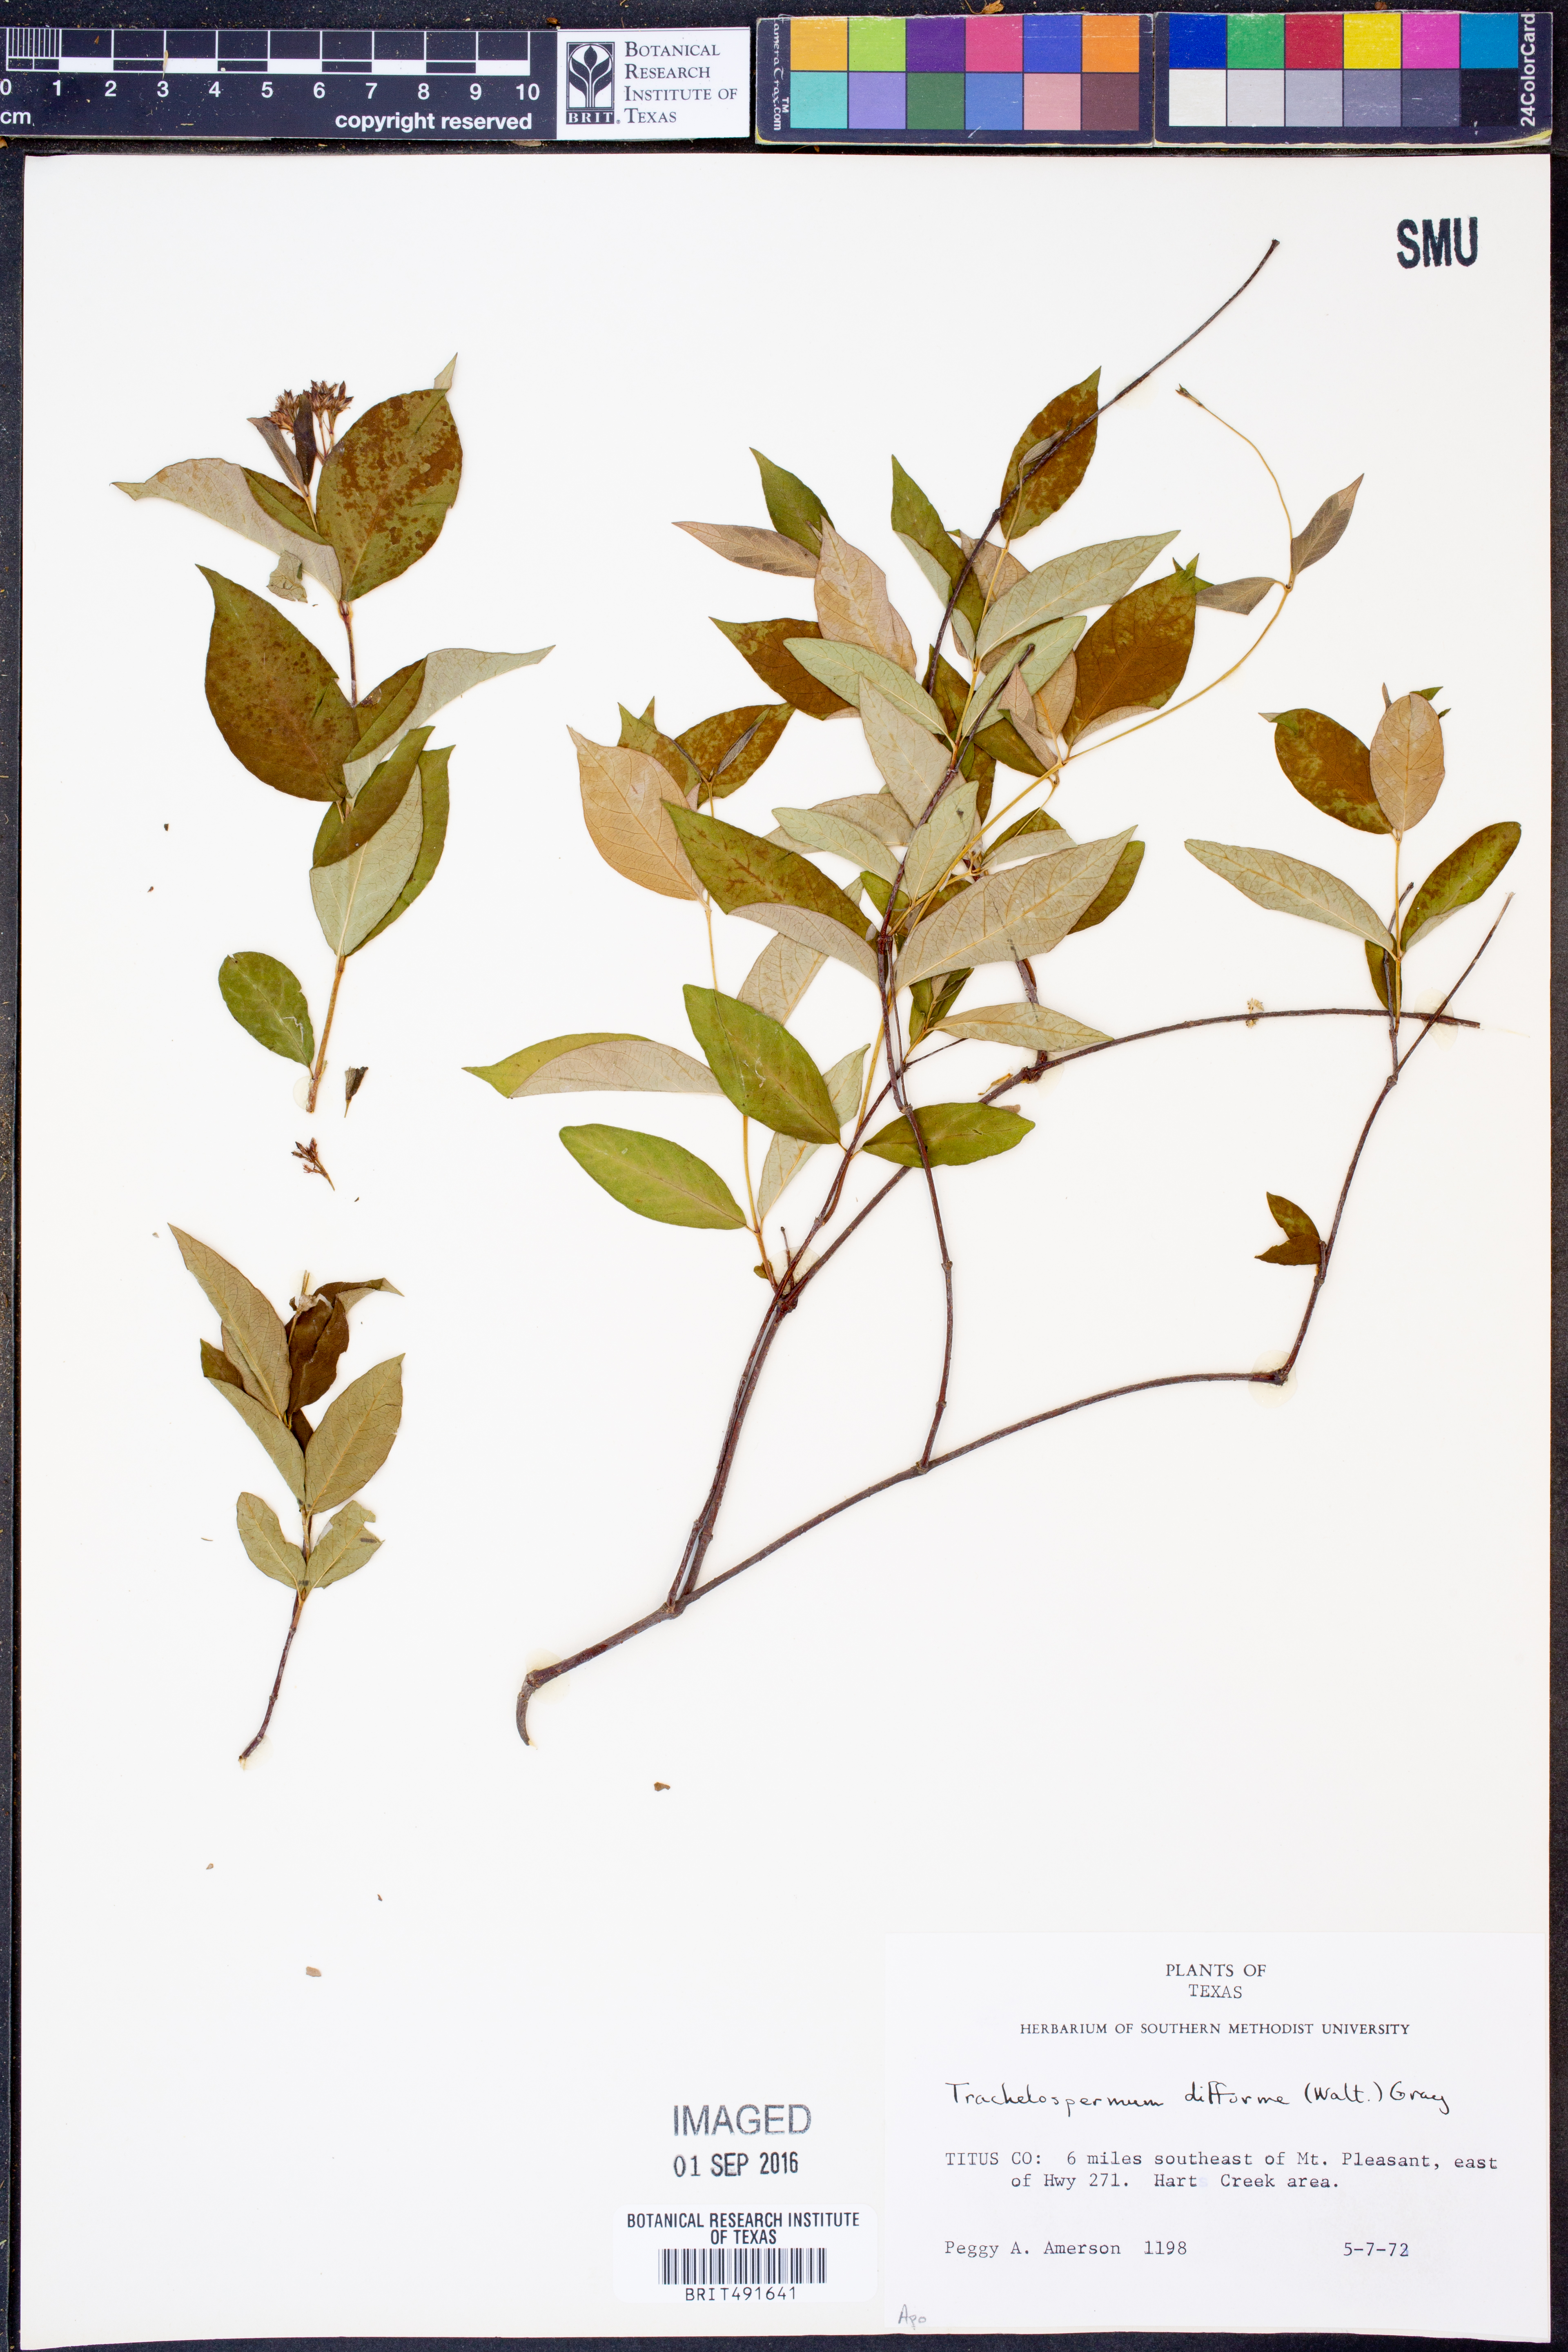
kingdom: Plantae
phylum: Tracheophyta
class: Magnoliopsida
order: Gentianales
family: Apocynaceae
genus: Thyrsanthella
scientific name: Thyrsanthella difformis
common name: Climbing dogbane
